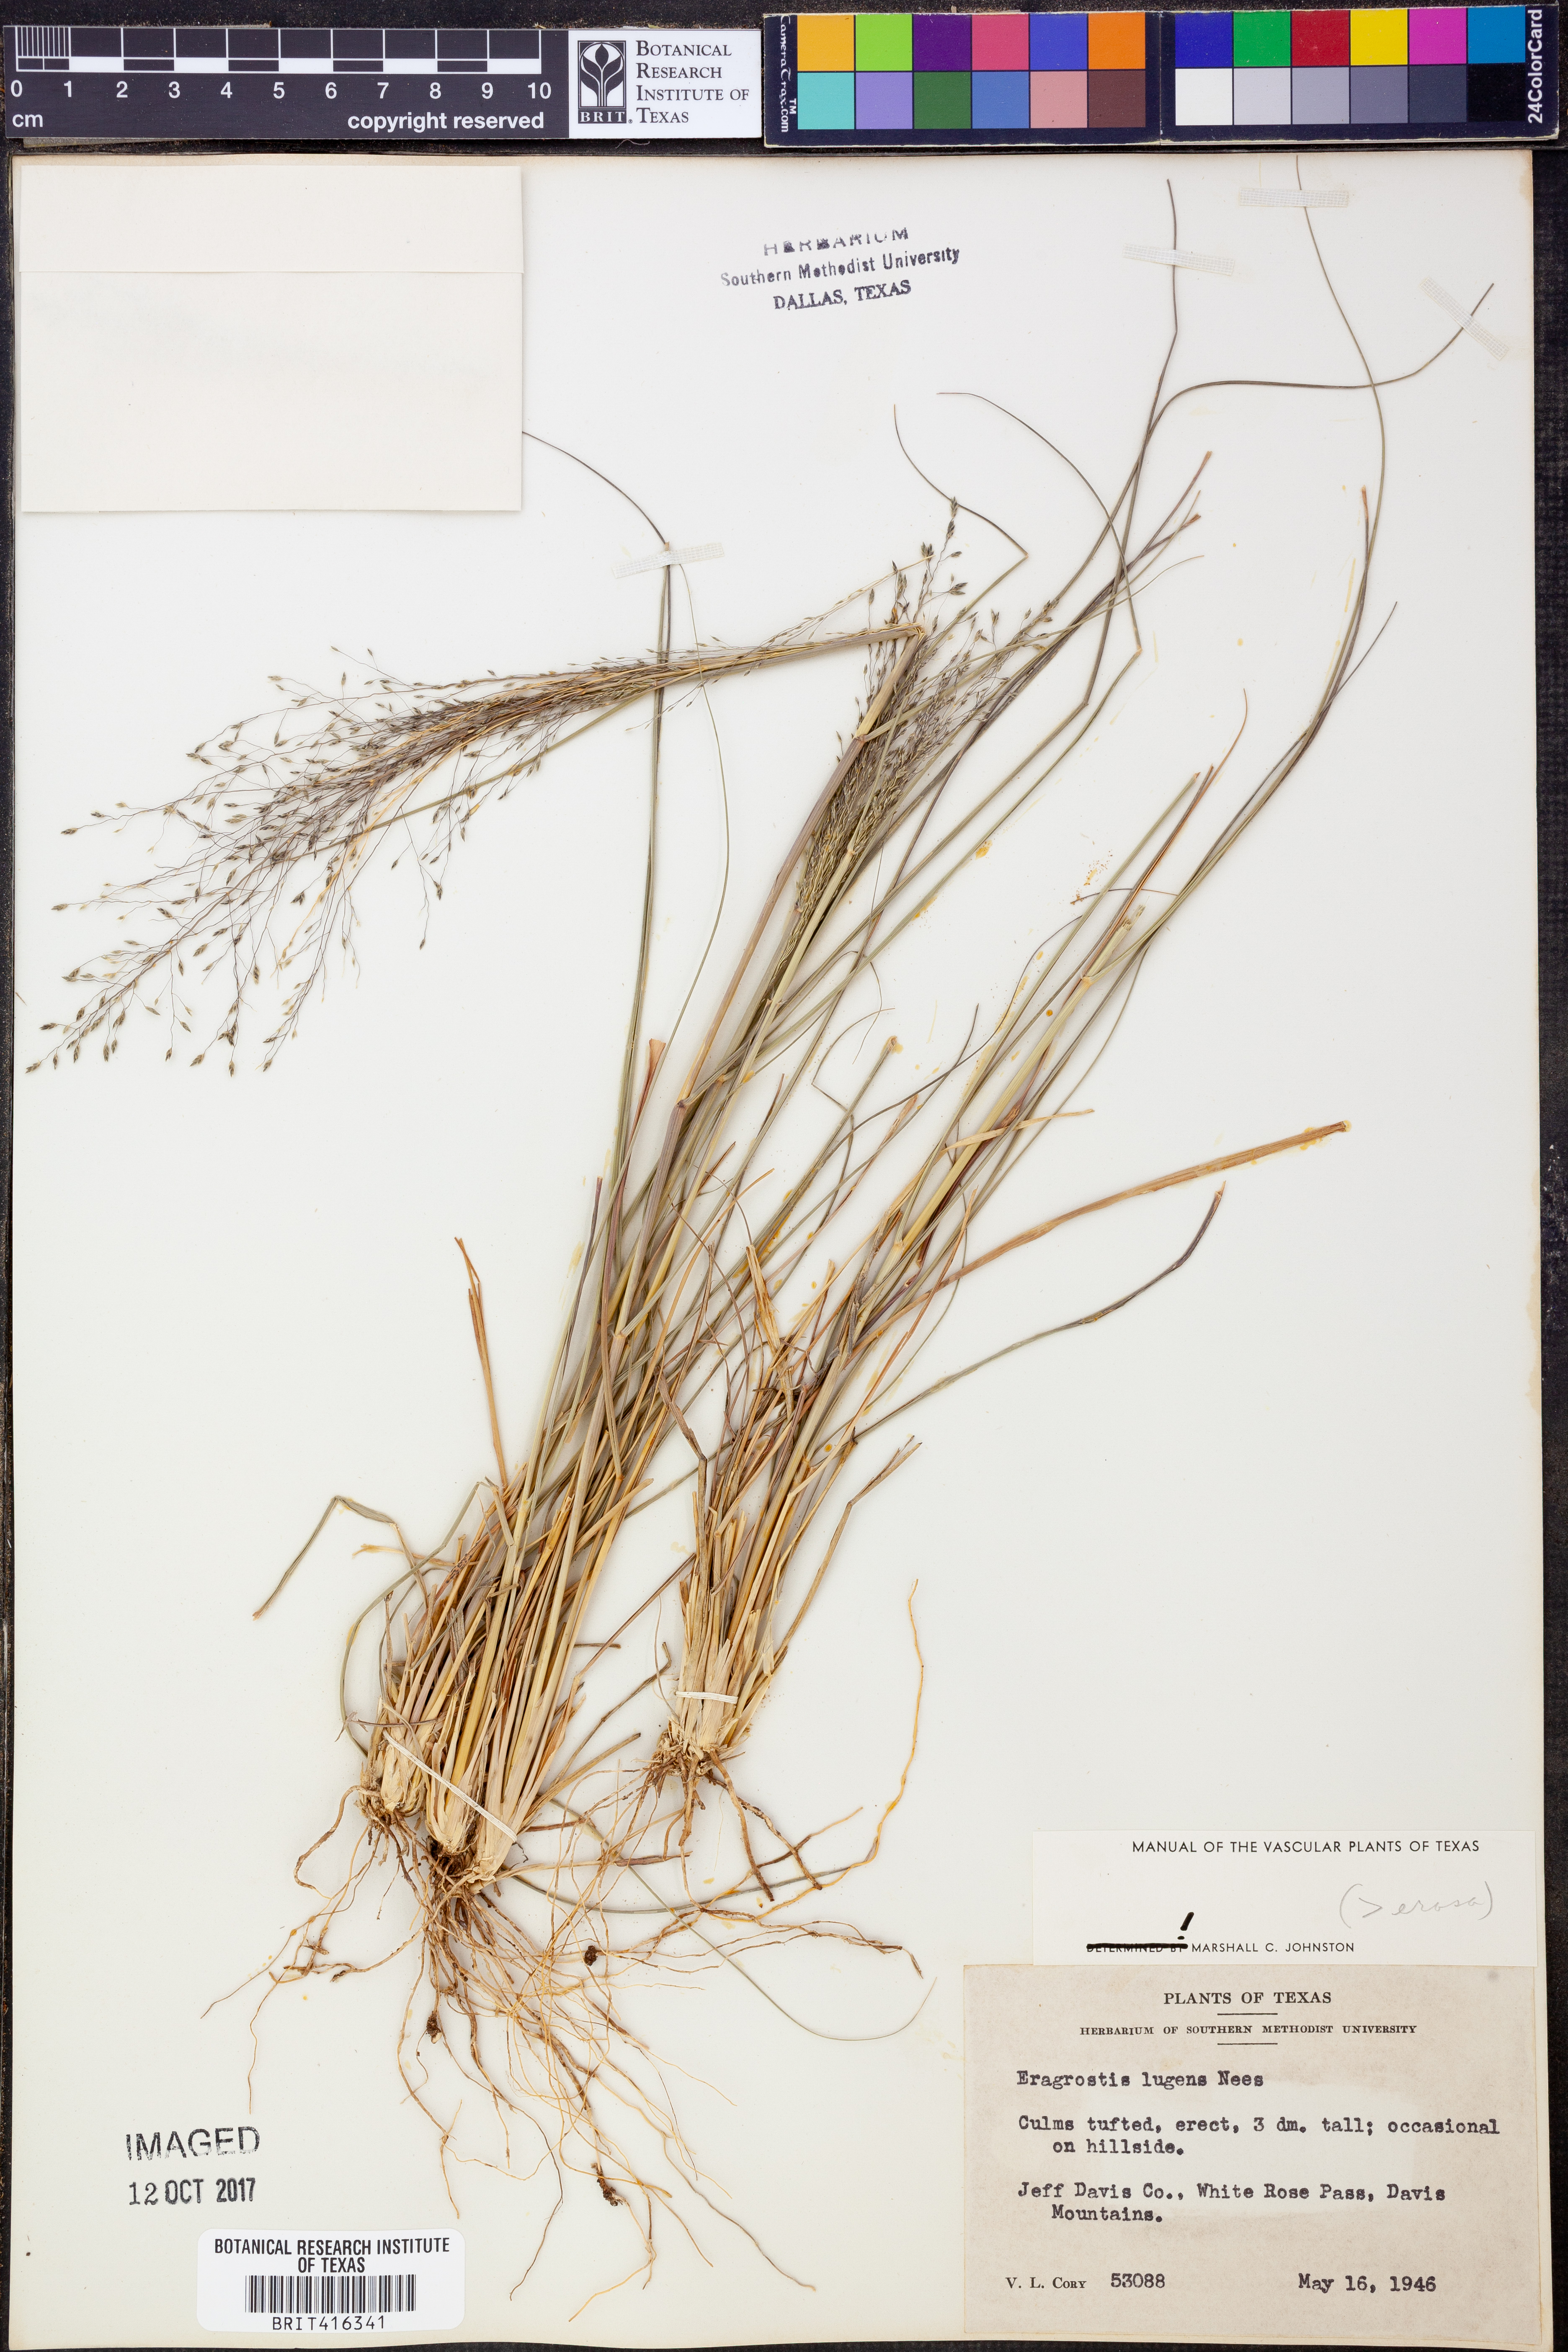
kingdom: Plantae
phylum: Tracheophyta
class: Liliopsida
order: Poales
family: Poaceae
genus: Eragrostis
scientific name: Eragrostis capillaris
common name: Hair-like lovegrass
